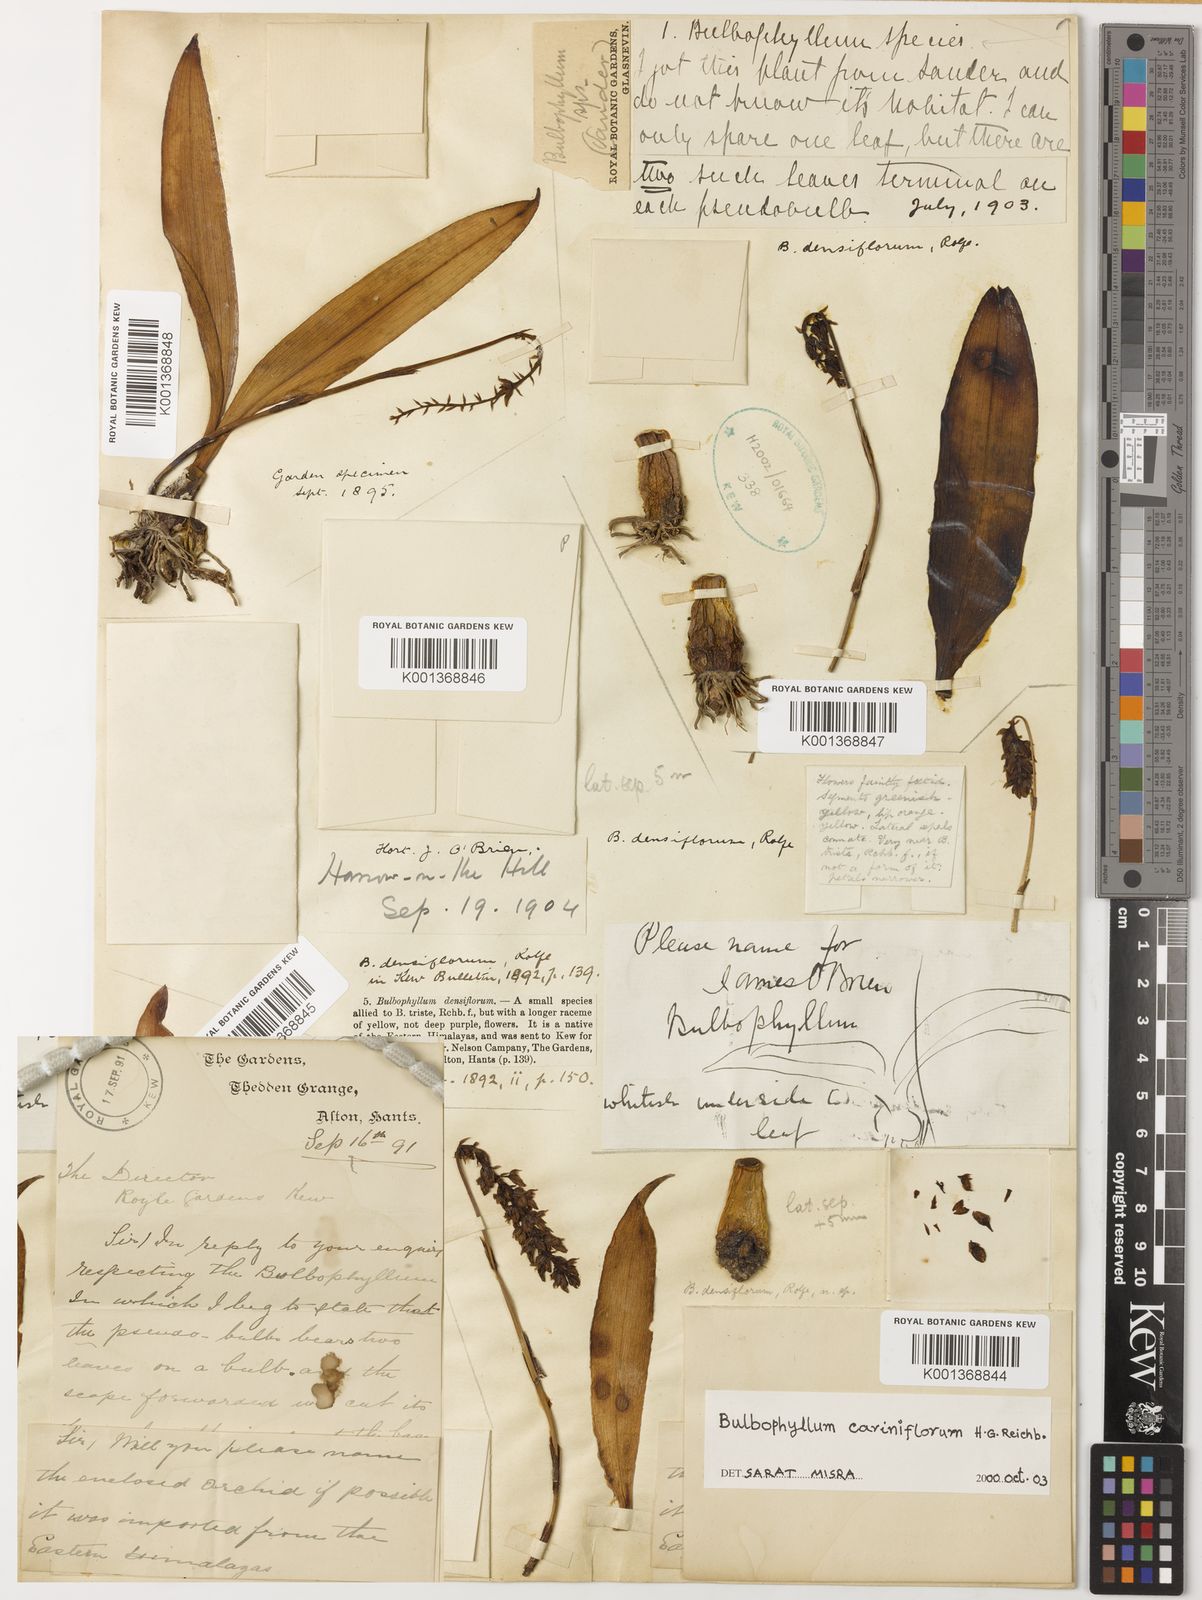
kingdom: Plantae
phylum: Tracheophyta
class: Liliopsida
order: Asparagales
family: Orchidaceae
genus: Bulbophyllum
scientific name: Bulbophyllum cariniflorum
